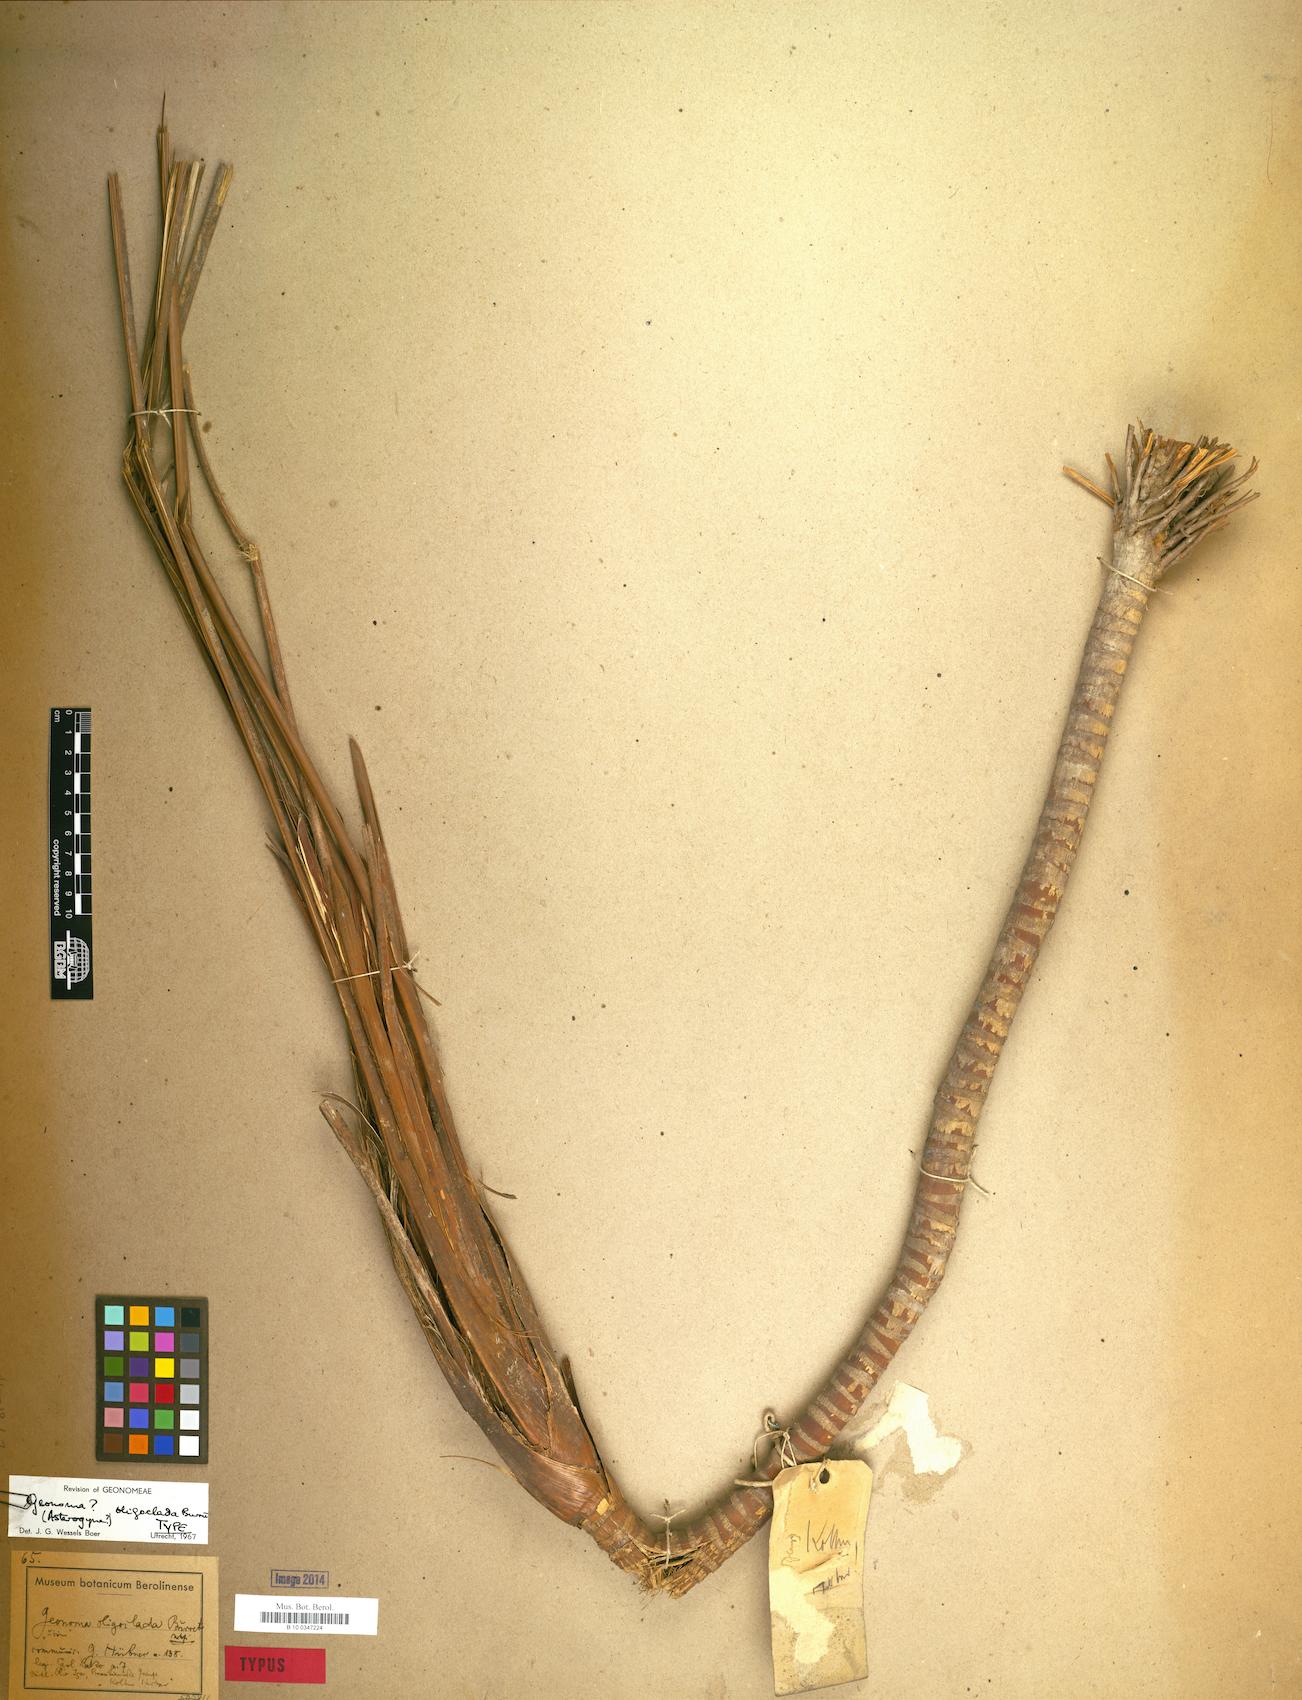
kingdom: Plantae
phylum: Tracheophyta
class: Liliopsida
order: Arecales
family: Arecaceae
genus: Geonoma
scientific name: Geonoma poeppigiana
